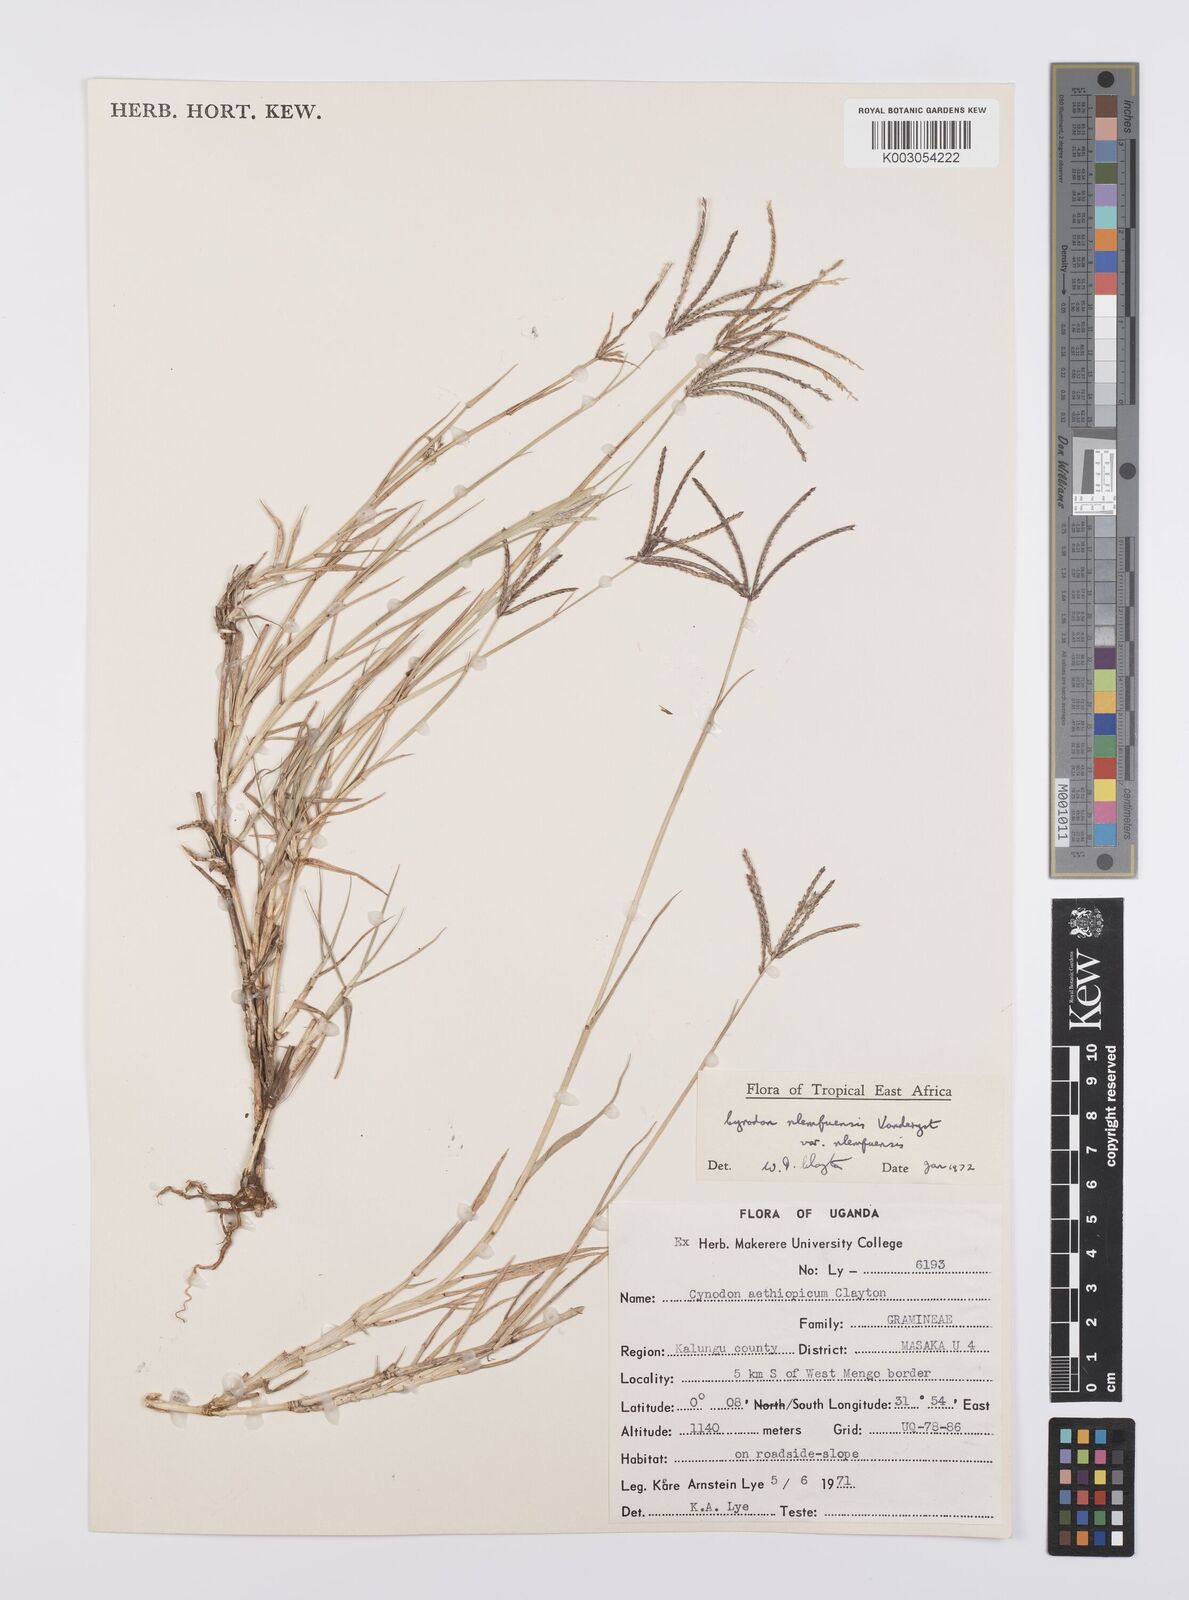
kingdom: Plantae
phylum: Tracheophyta
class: Liliopsida
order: Poales
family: Poaceae
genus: Cynodon
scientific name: Cynodon nlemfuensis
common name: African bermudagrass
